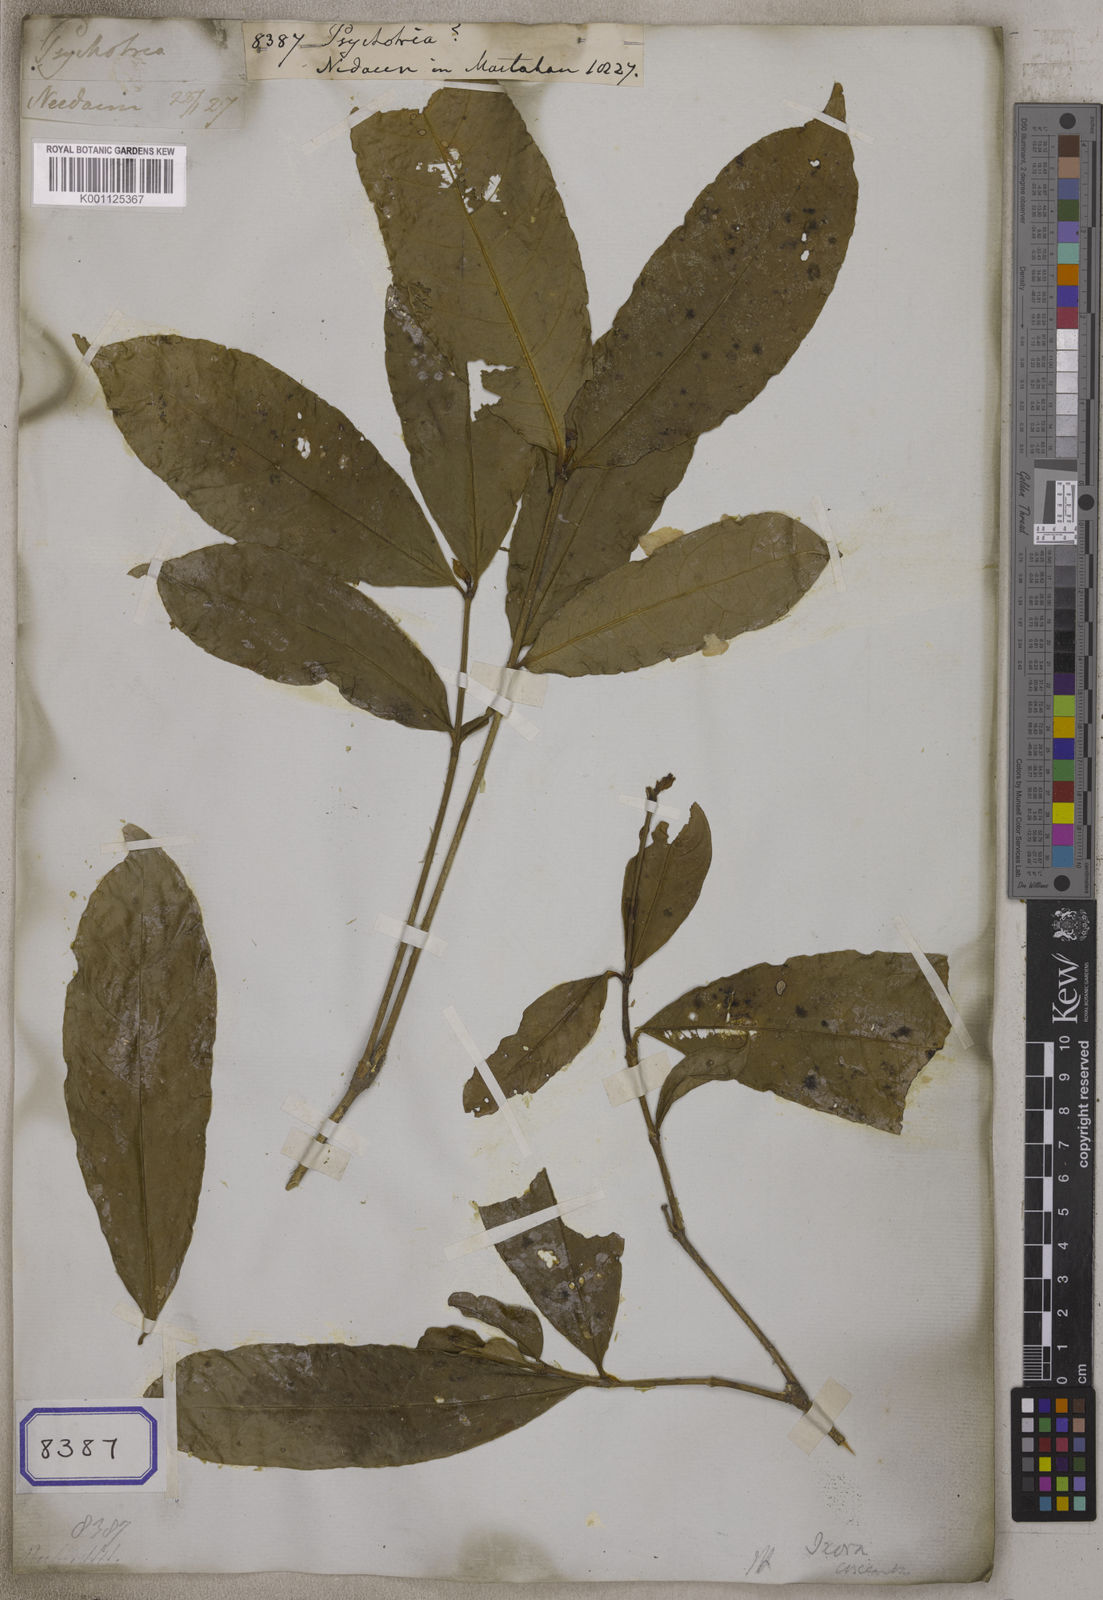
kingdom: Plantae
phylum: Tracheophyta
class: Magnoliopsida
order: Gentianales
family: Rubiaceae
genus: Psychotria
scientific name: Psychotria
